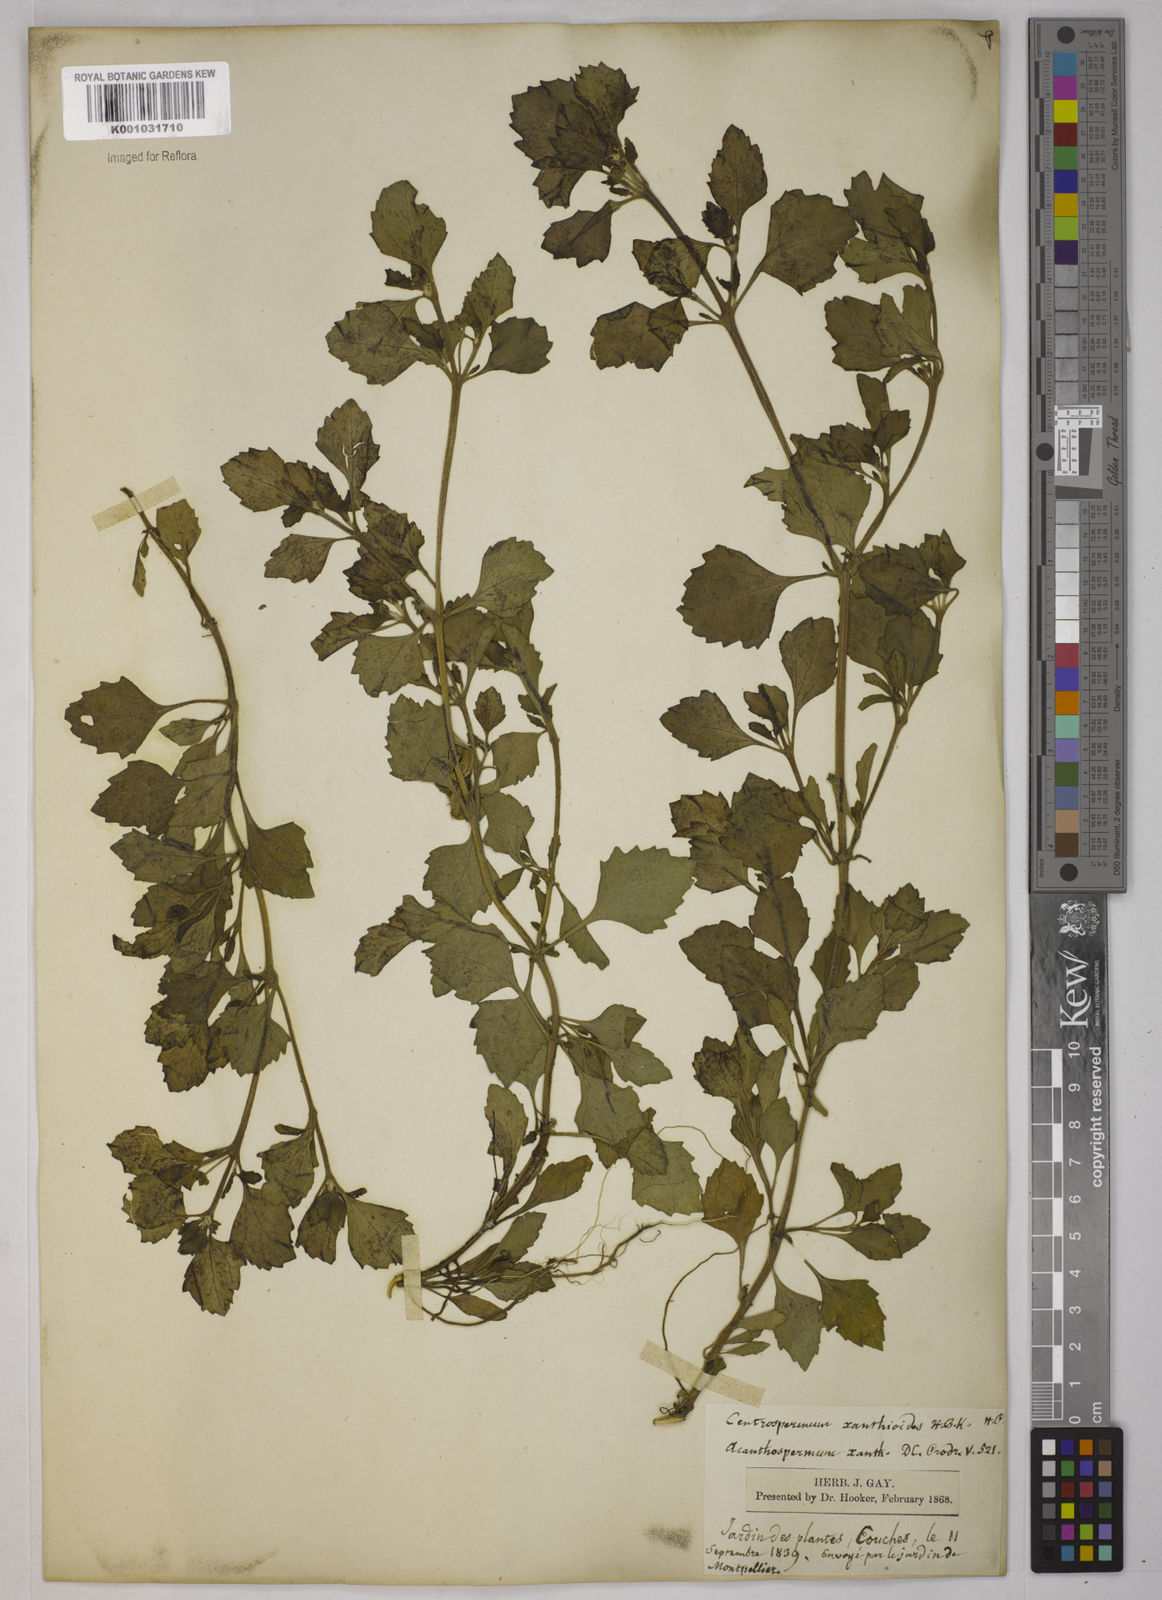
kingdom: Plantae
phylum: Tracheophyta
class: Magnoliopsida
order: Asterales
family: Asteraceae
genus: Acanthospermum
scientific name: Acanthospermum australe
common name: Paraguayan starbur
